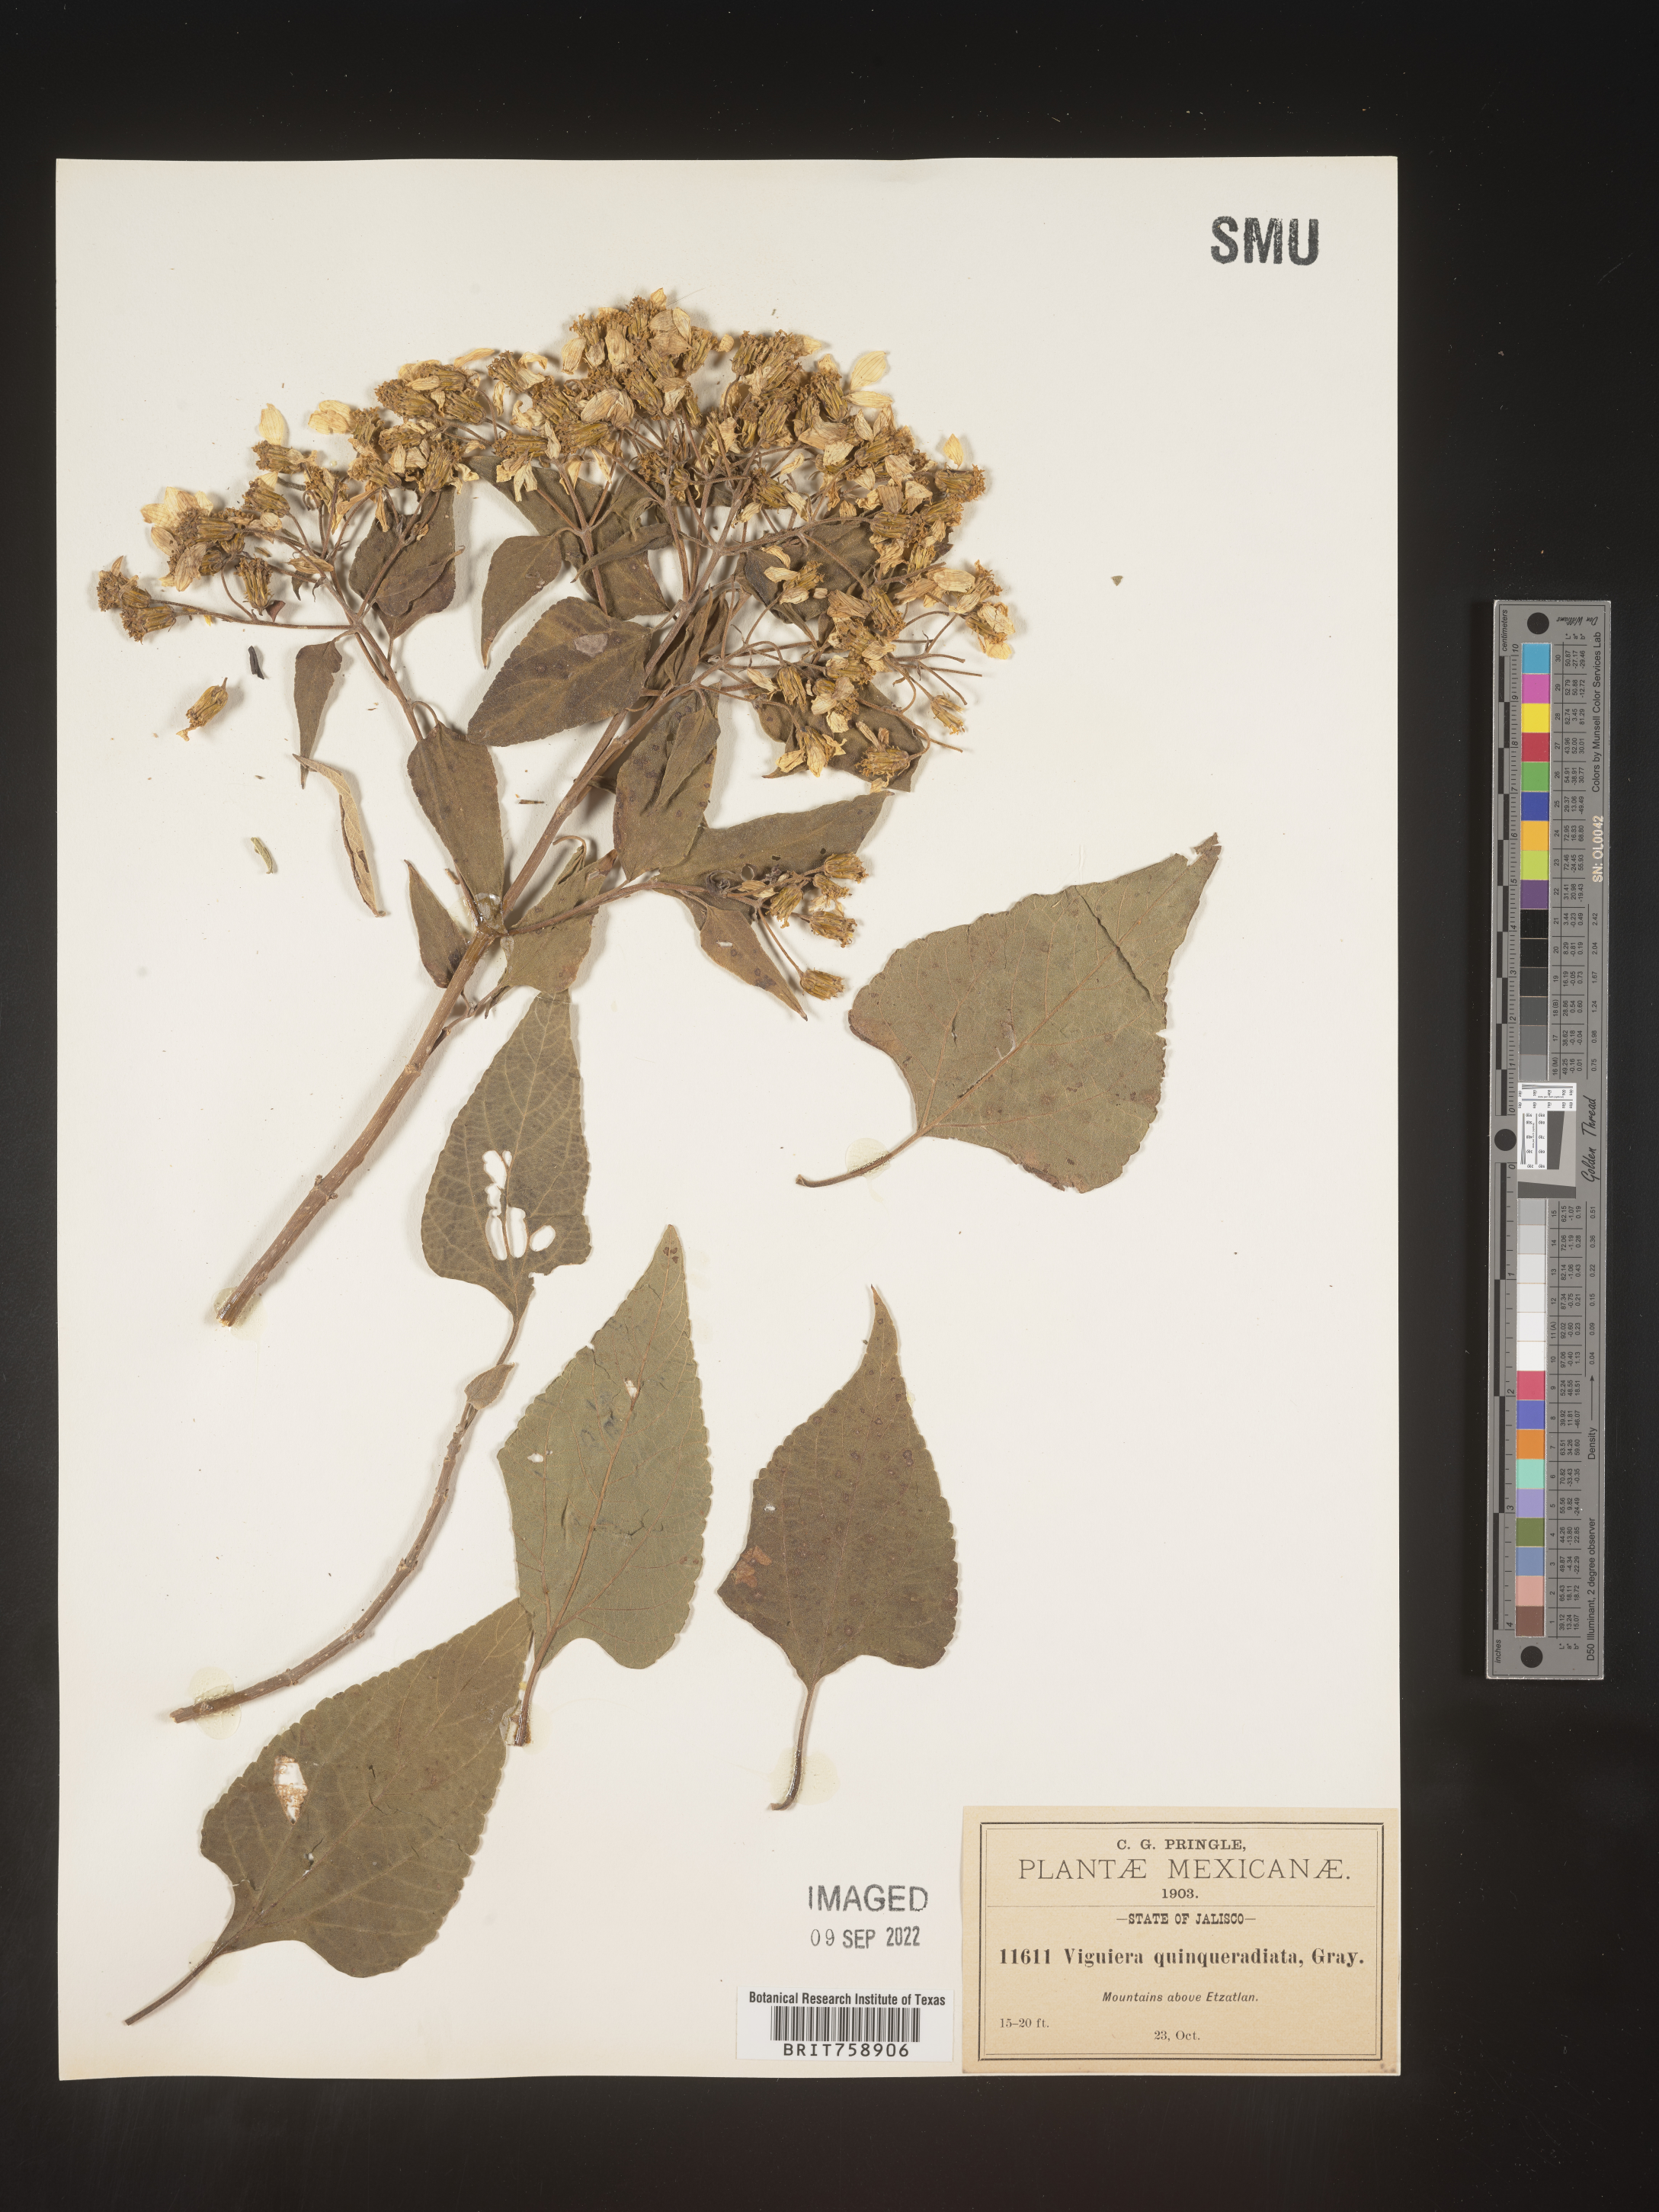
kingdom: Plantae
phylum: Tracheophyta
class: Magnoliopsida
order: Asterales
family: Asteraceae
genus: Viguiera
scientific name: Viguiera
